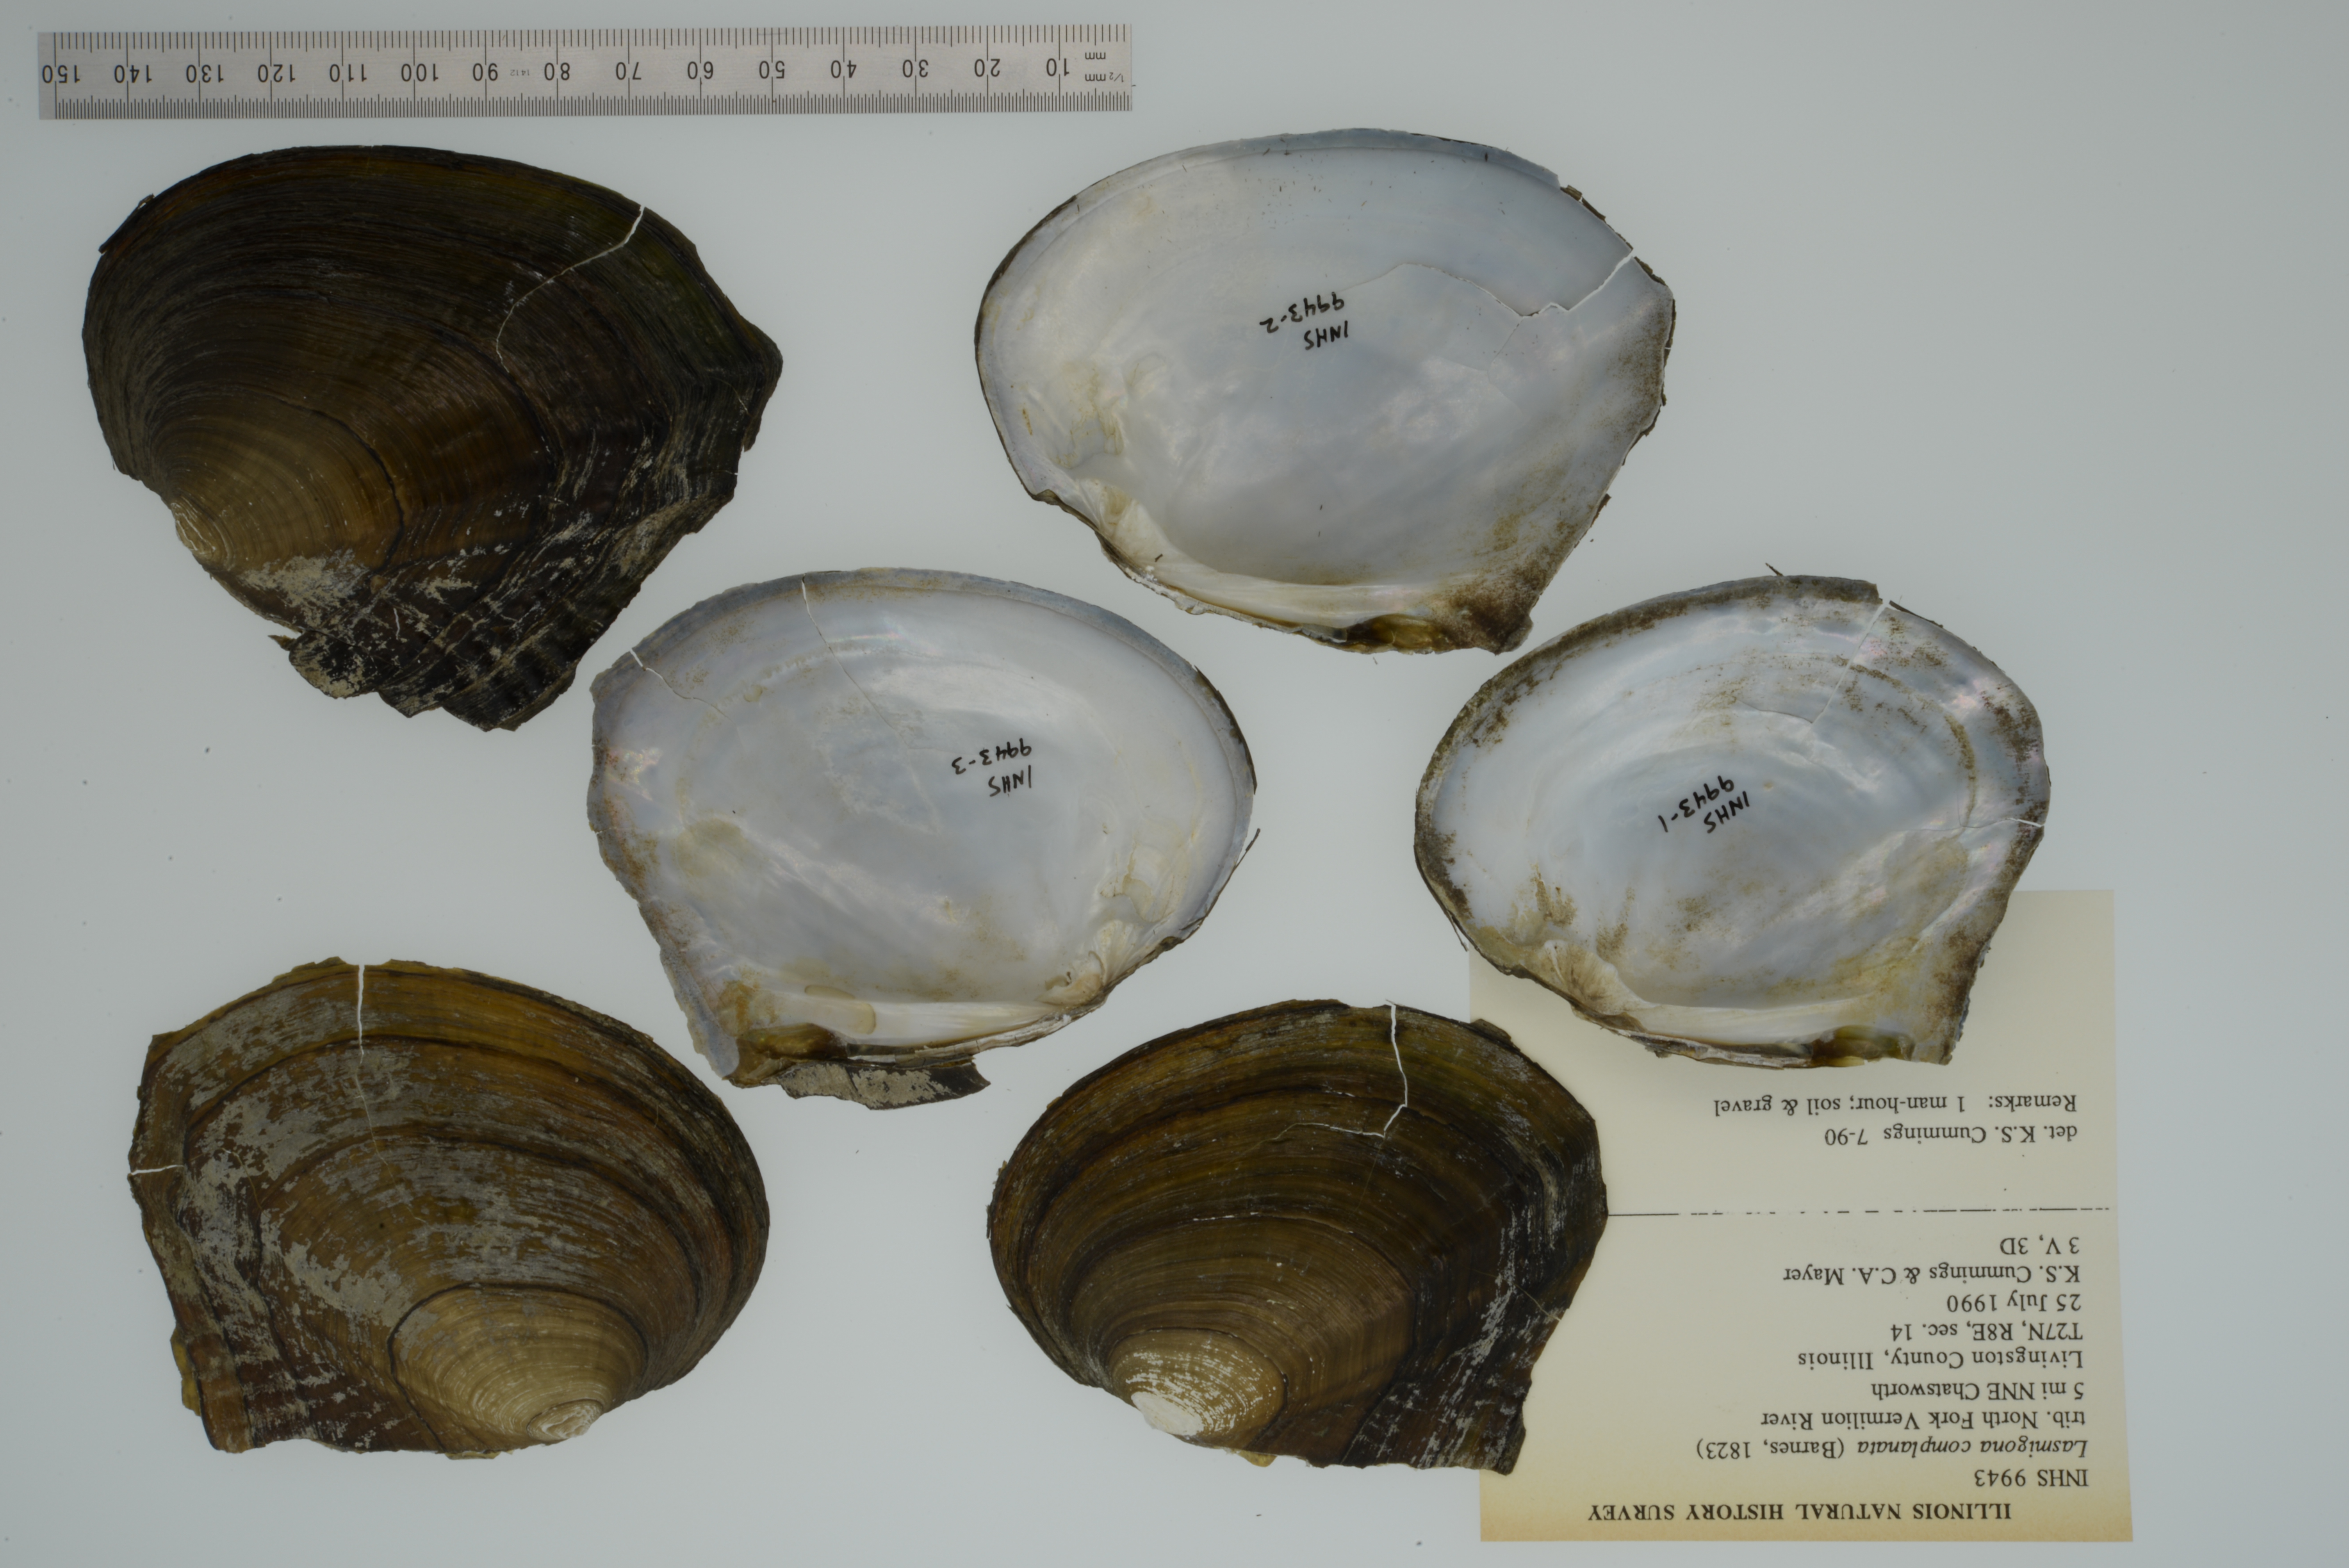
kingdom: Animalia
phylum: Mollusca
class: Bivalvia
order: Unionida
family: Unionidae
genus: Lasmigona
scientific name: Lasmigona complanata
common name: White heelsplitter
